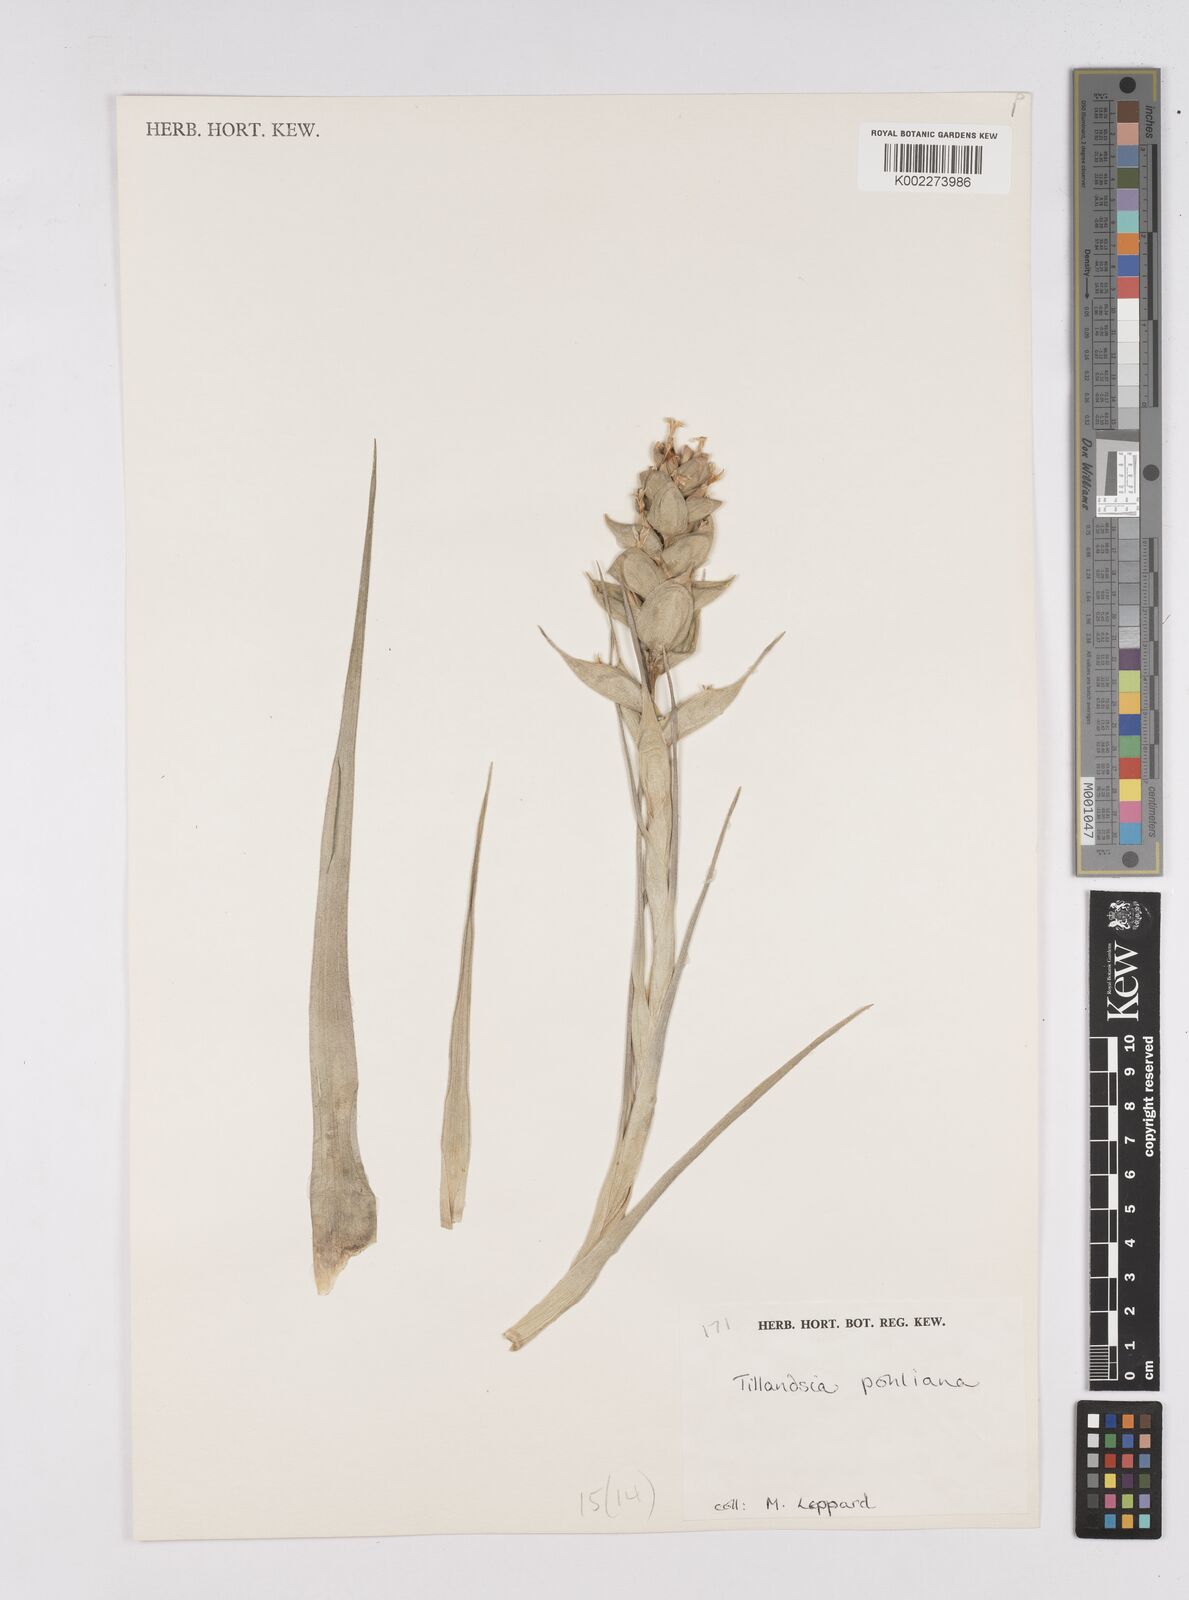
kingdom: Plantae
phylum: Tracheophyta
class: Liliopsida
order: Poales
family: Bromeliaceae
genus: Tillandsia
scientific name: Tillandsia pohliana
